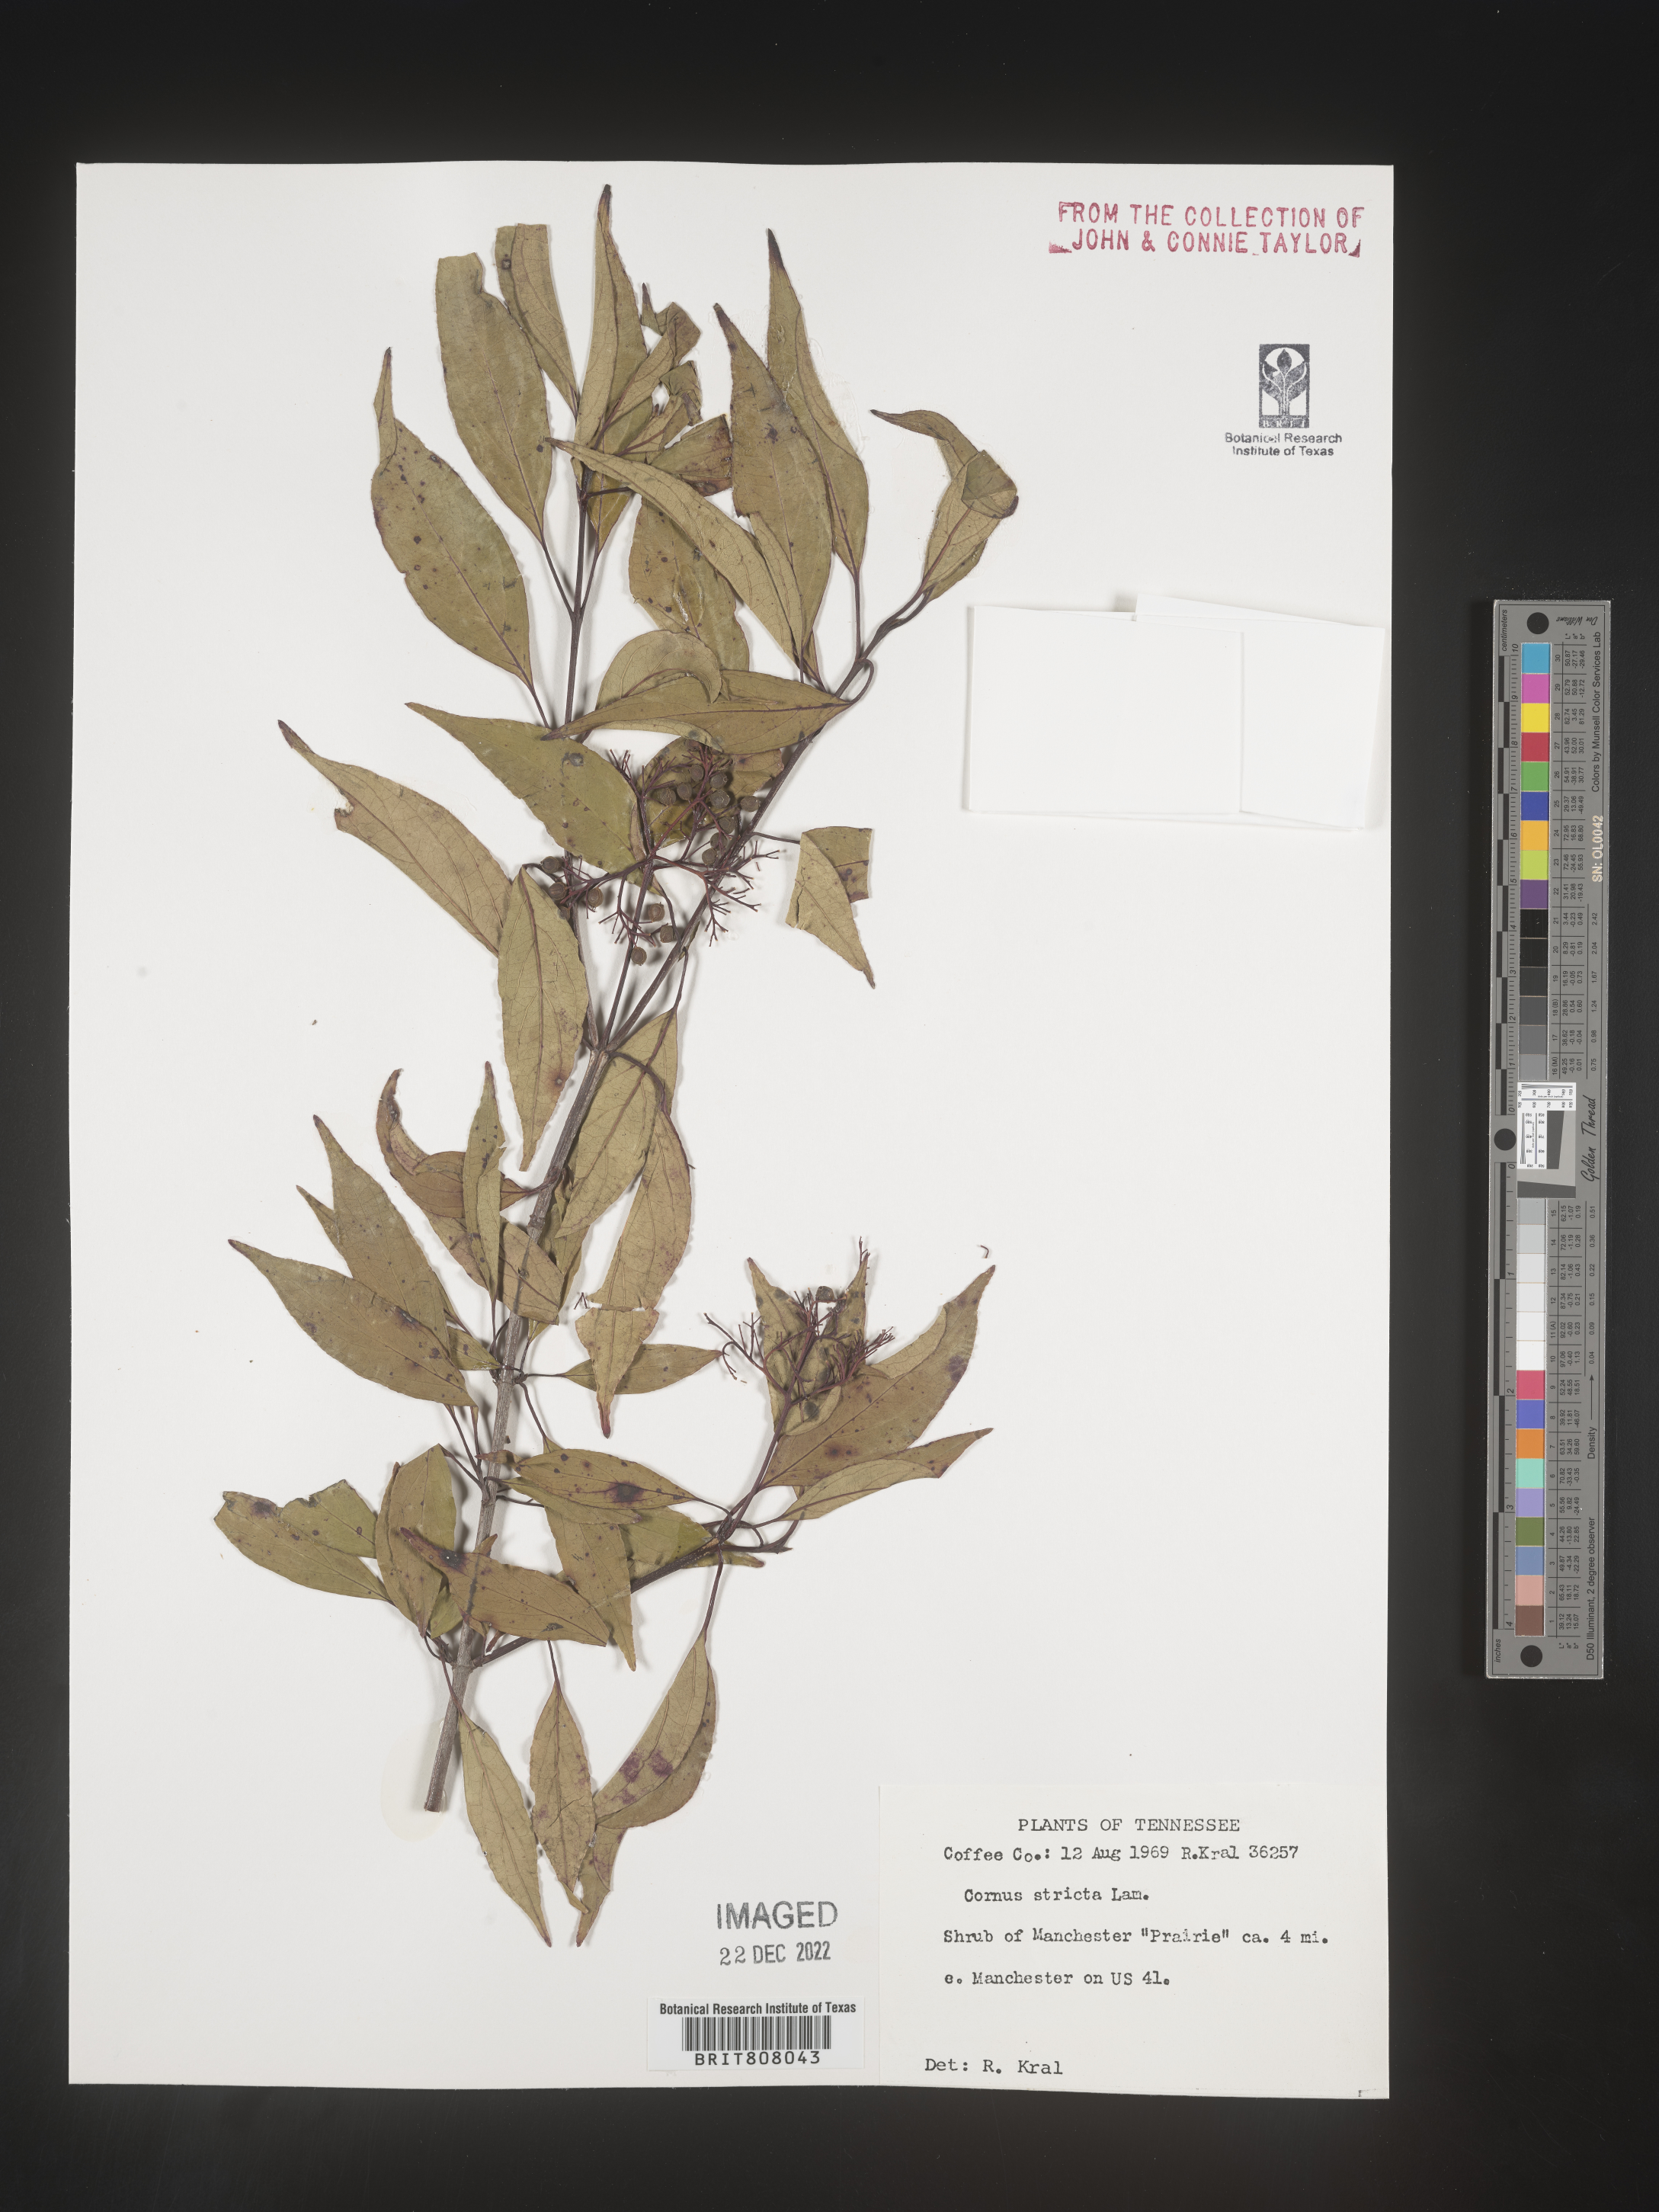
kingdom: Plantae
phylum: Tracheophyta
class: Magnoliopsida
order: Cornales
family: Cornaceae
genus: Cornus
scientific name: Cornus foemina
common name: Swamp dogwood
